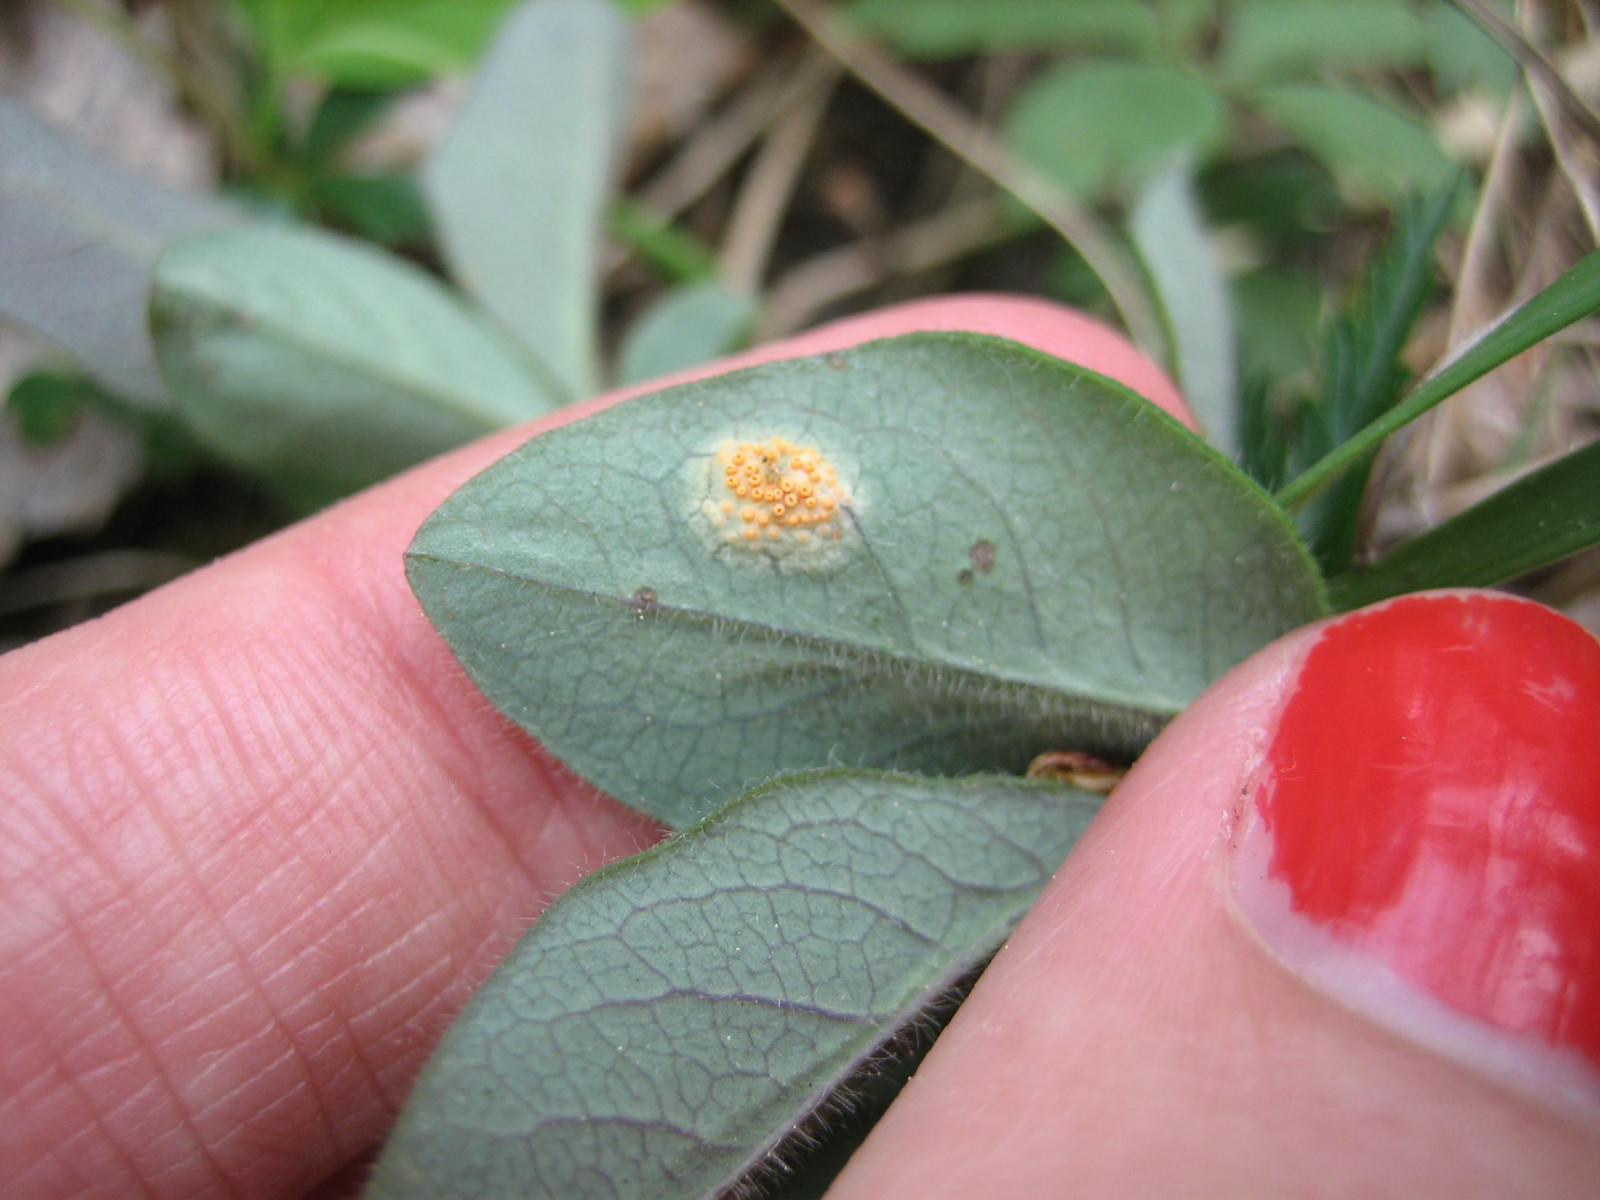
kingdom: Fungi
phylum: Basidiomycota
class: Pucciniomycetes
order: Pucciniales
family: Pucciniaceae
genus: Puccinia
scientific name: Puccinia festucae
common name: gedeblad-tvecellerust
